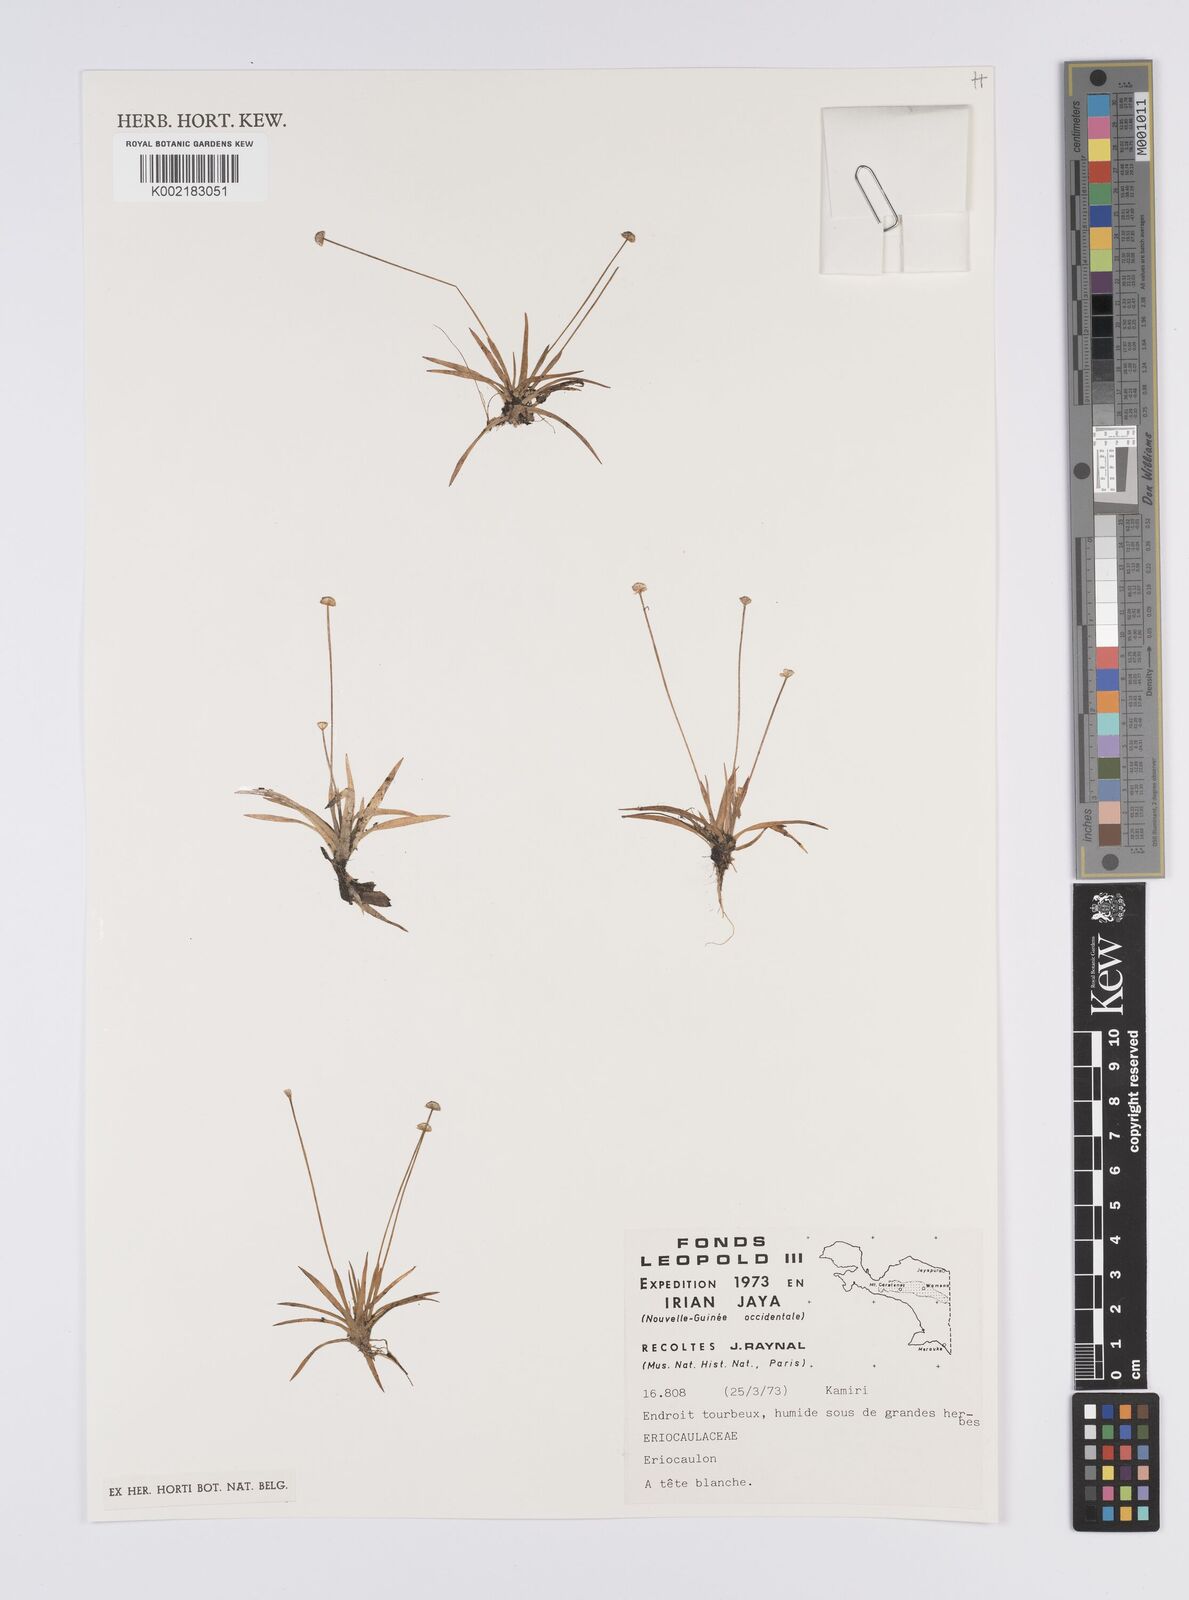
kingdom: Plantae
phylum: Tracheophyta
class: Liliopsida
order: Poales
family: Eriocaulaceae
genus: Eriocaulon
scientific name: Eriocaulon
